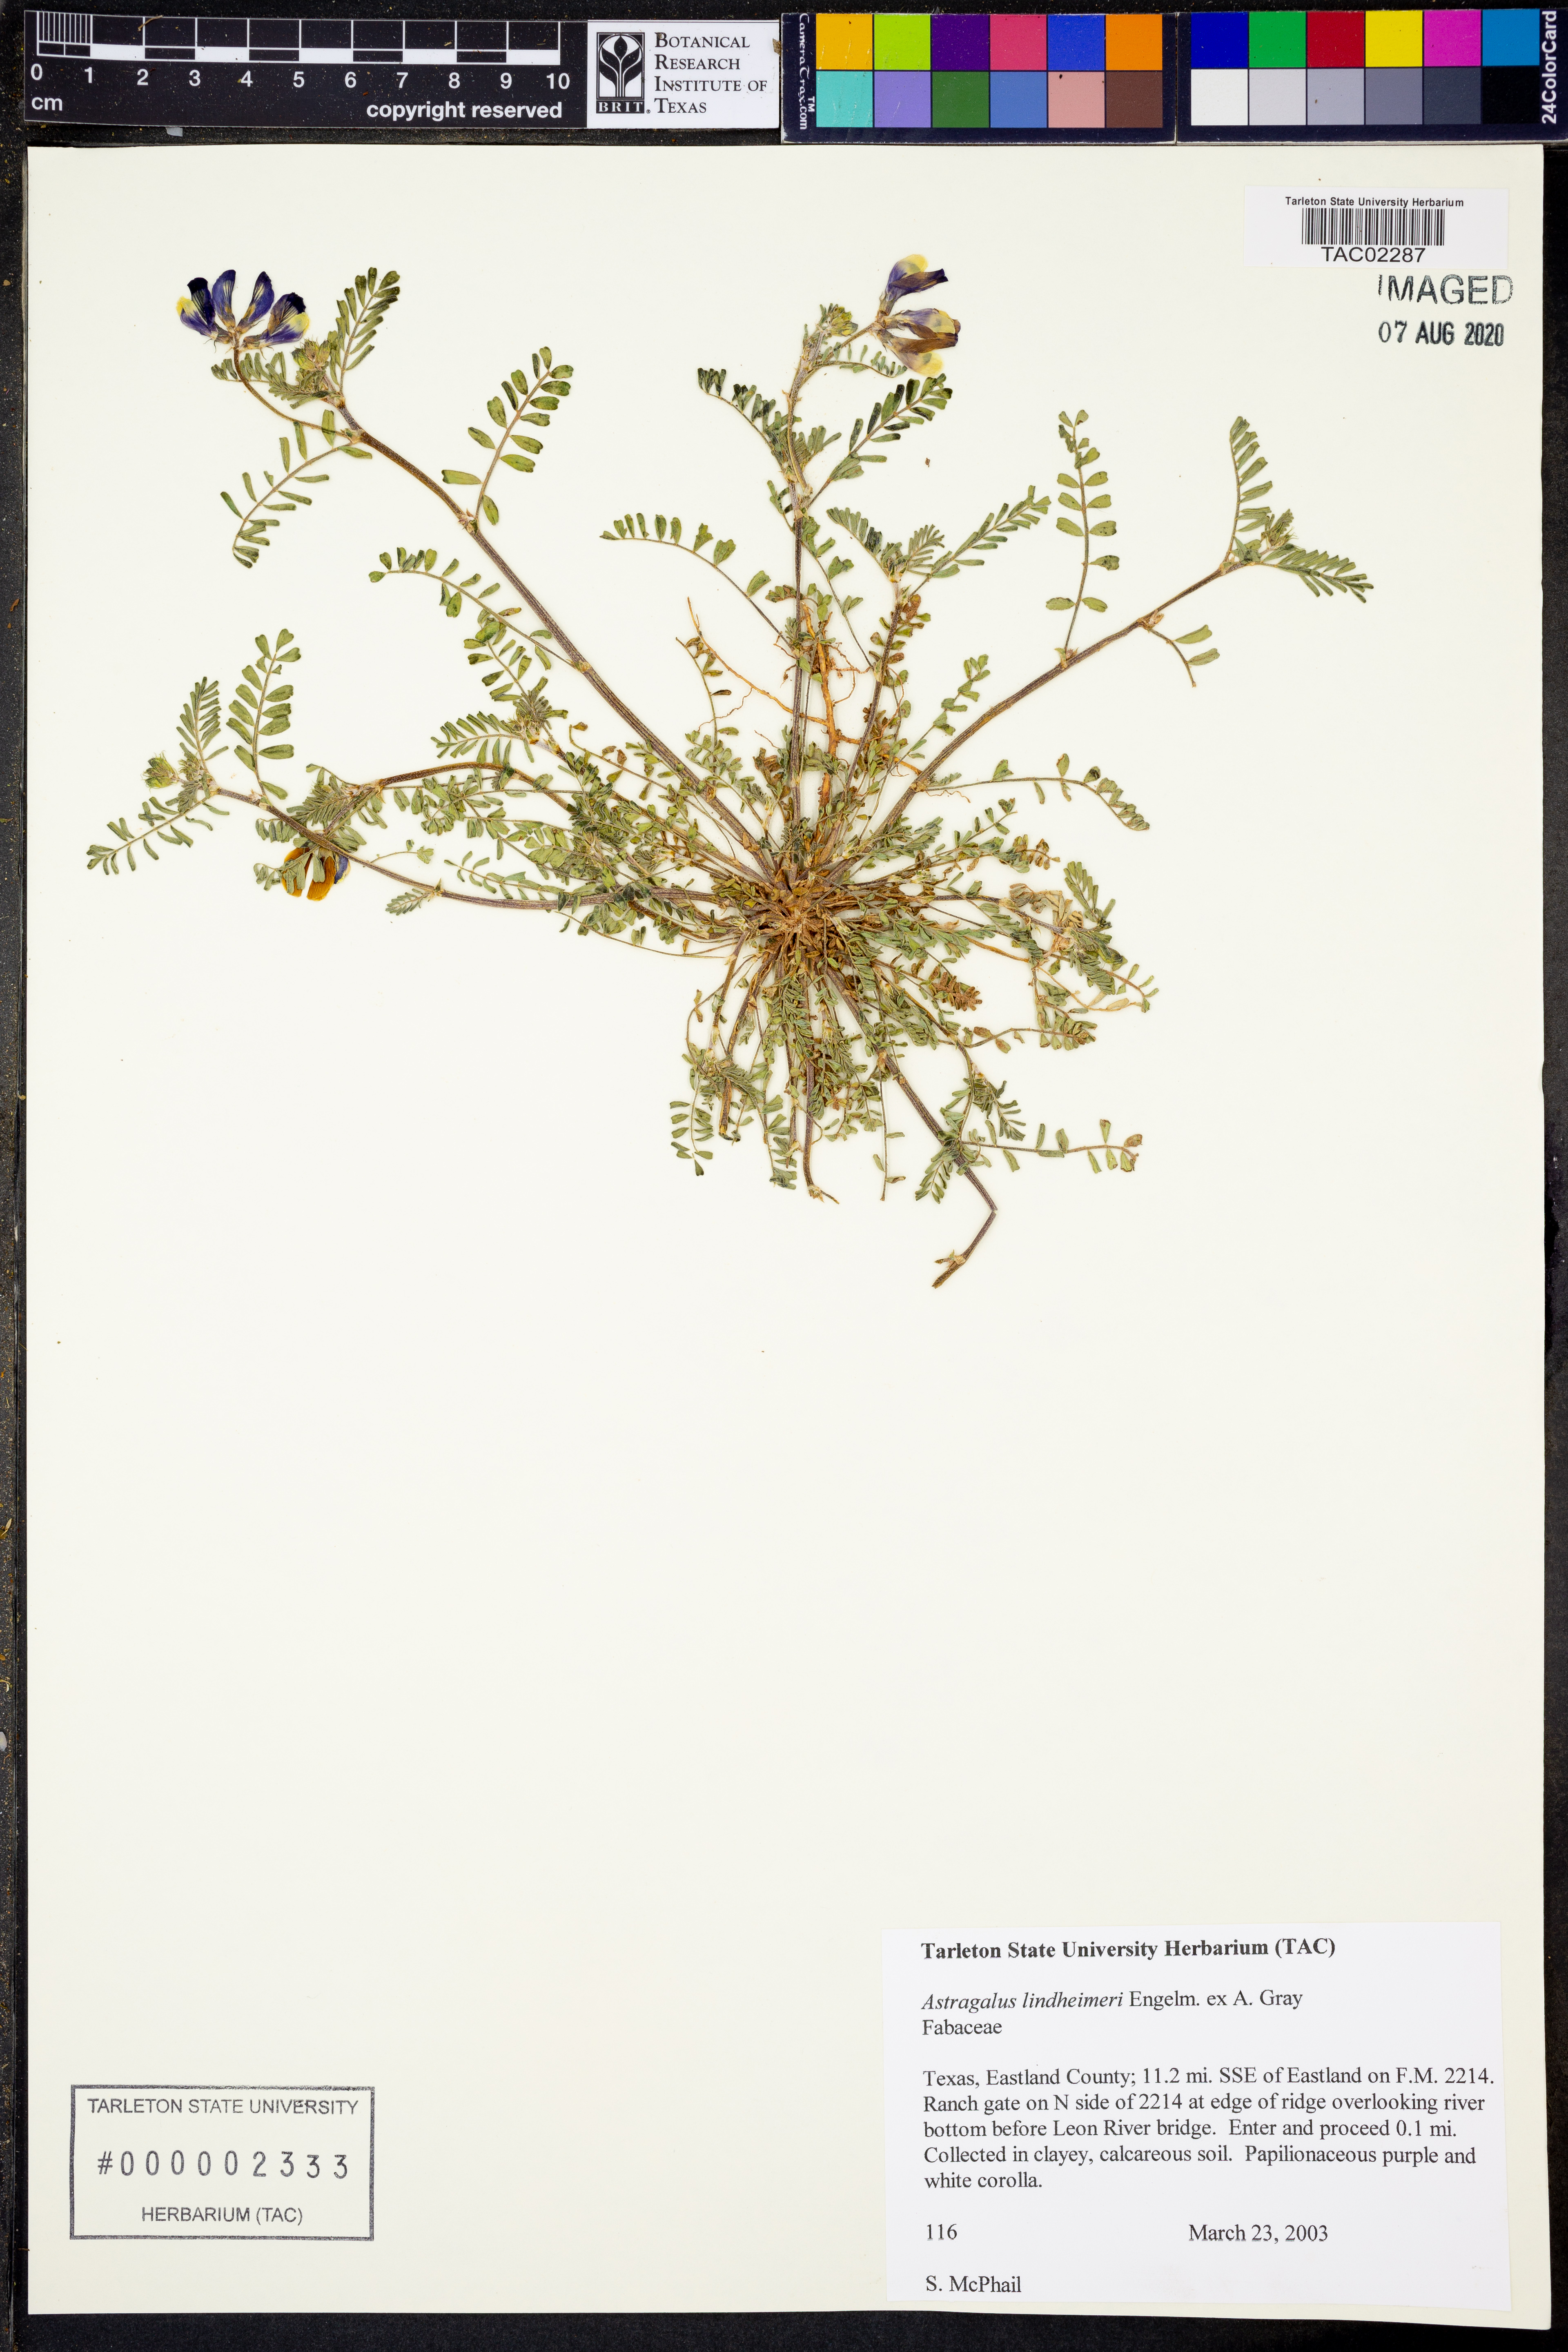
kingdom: Plantae
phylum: Tracheophyta
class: Magnoliopsida
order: Fabales
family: Fabaceae
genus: Astragalus
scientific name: Astragalus lindheimeri
